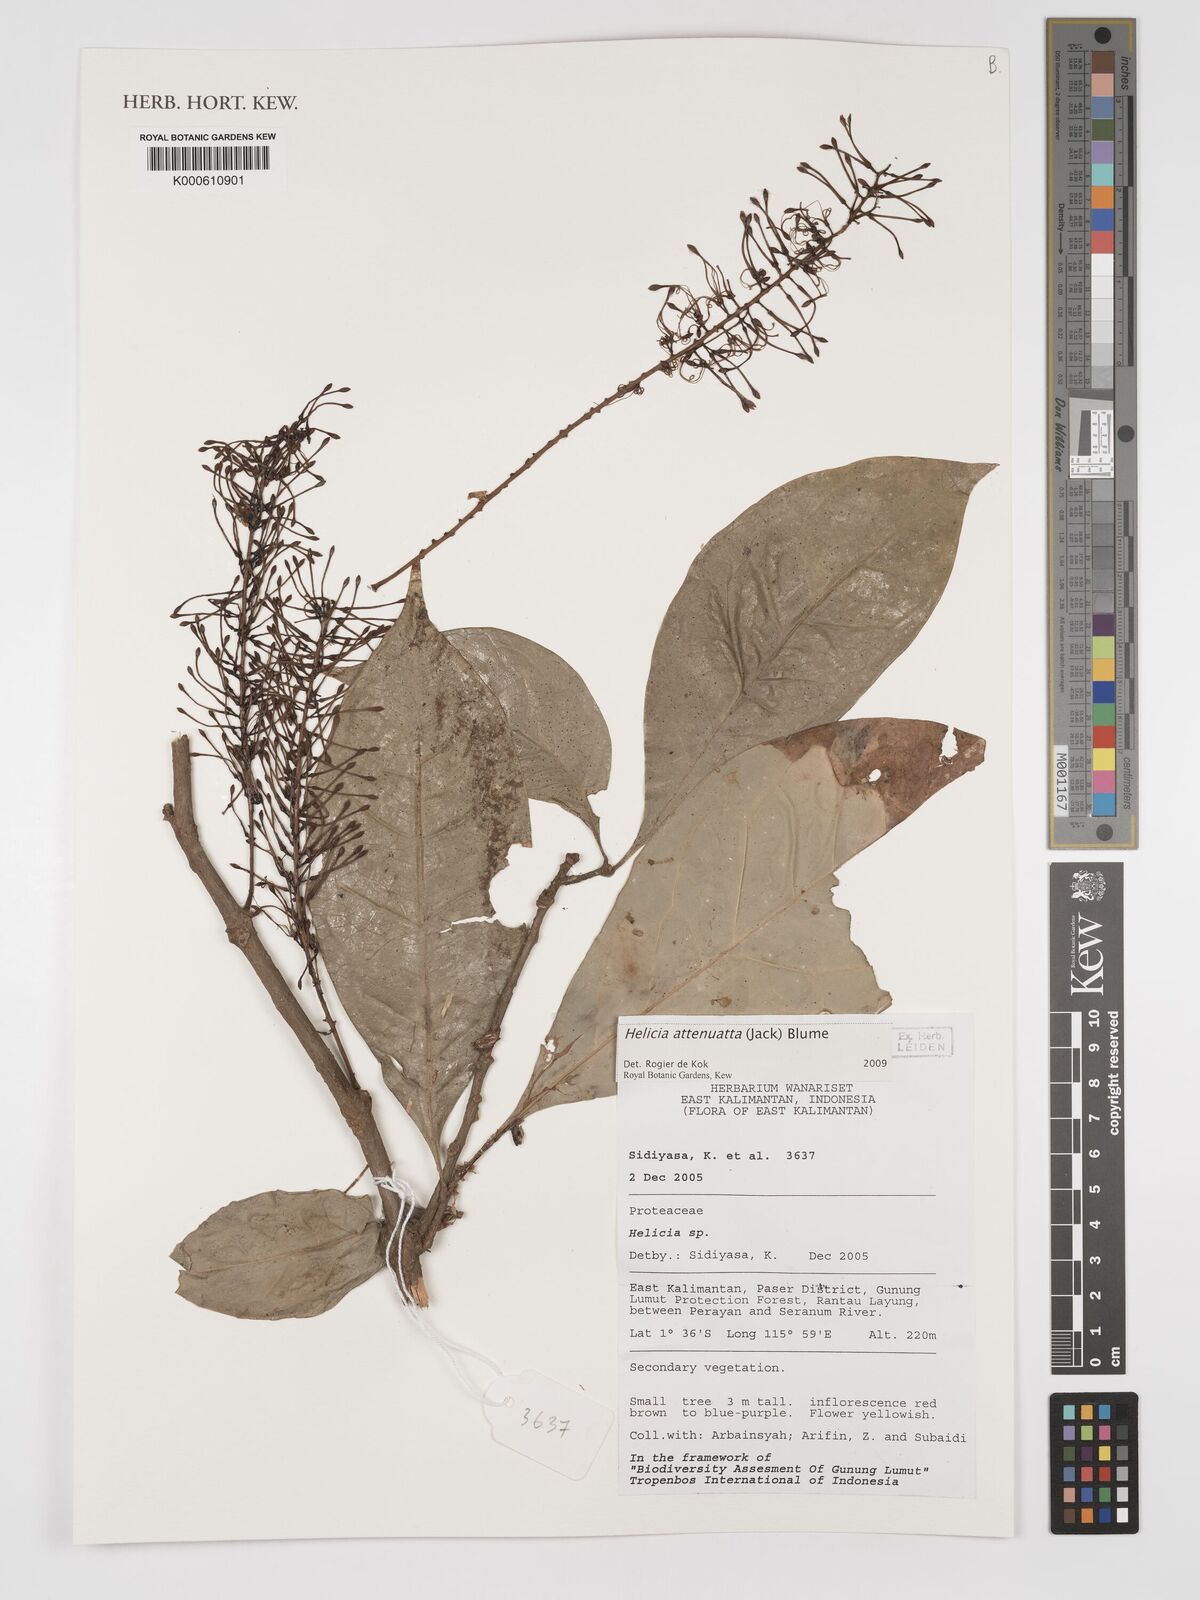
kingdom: Plantae
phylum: Tracheophyta
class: Magnoliopsida
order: Proteales
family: Proteaceae
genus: Helicia
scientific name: Helicia attenuata
